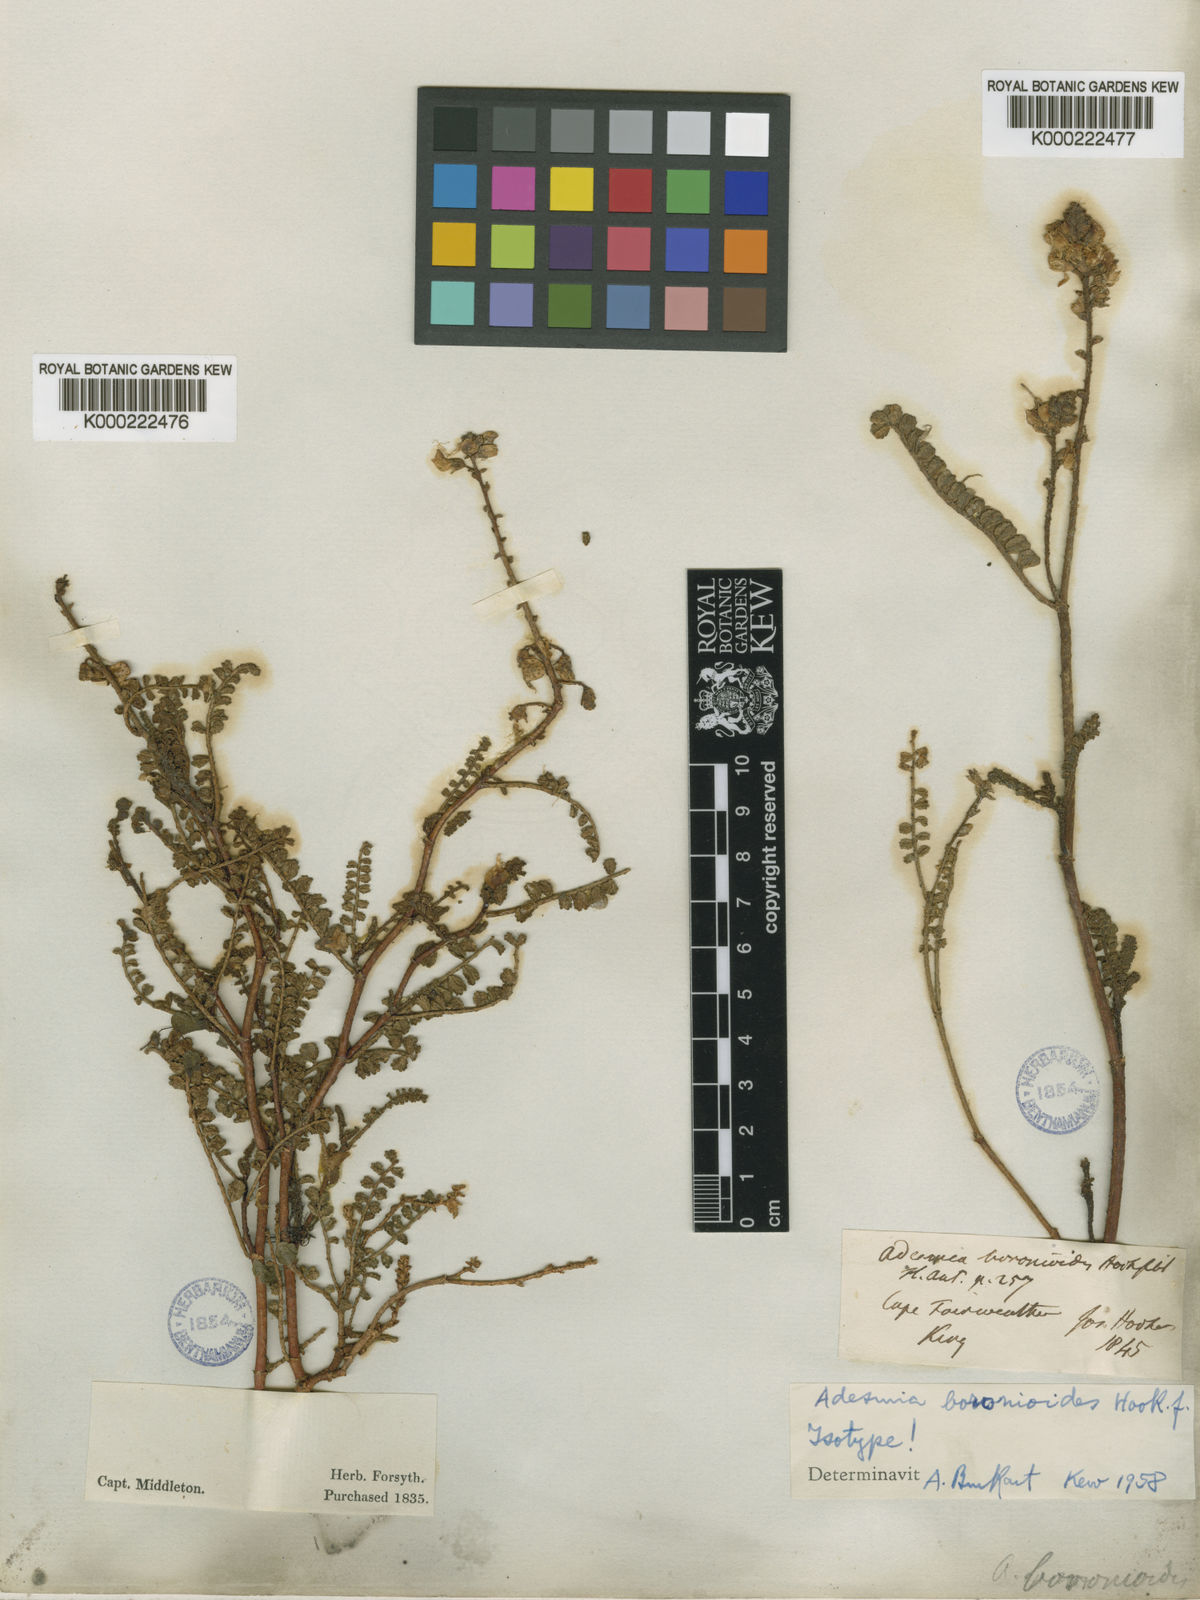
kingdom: Plantae
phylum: Tracheophyta
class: Magnoliopsida
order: Fabales
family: Fabaceae
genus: Adesmia
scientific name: Adesmia boronioides
